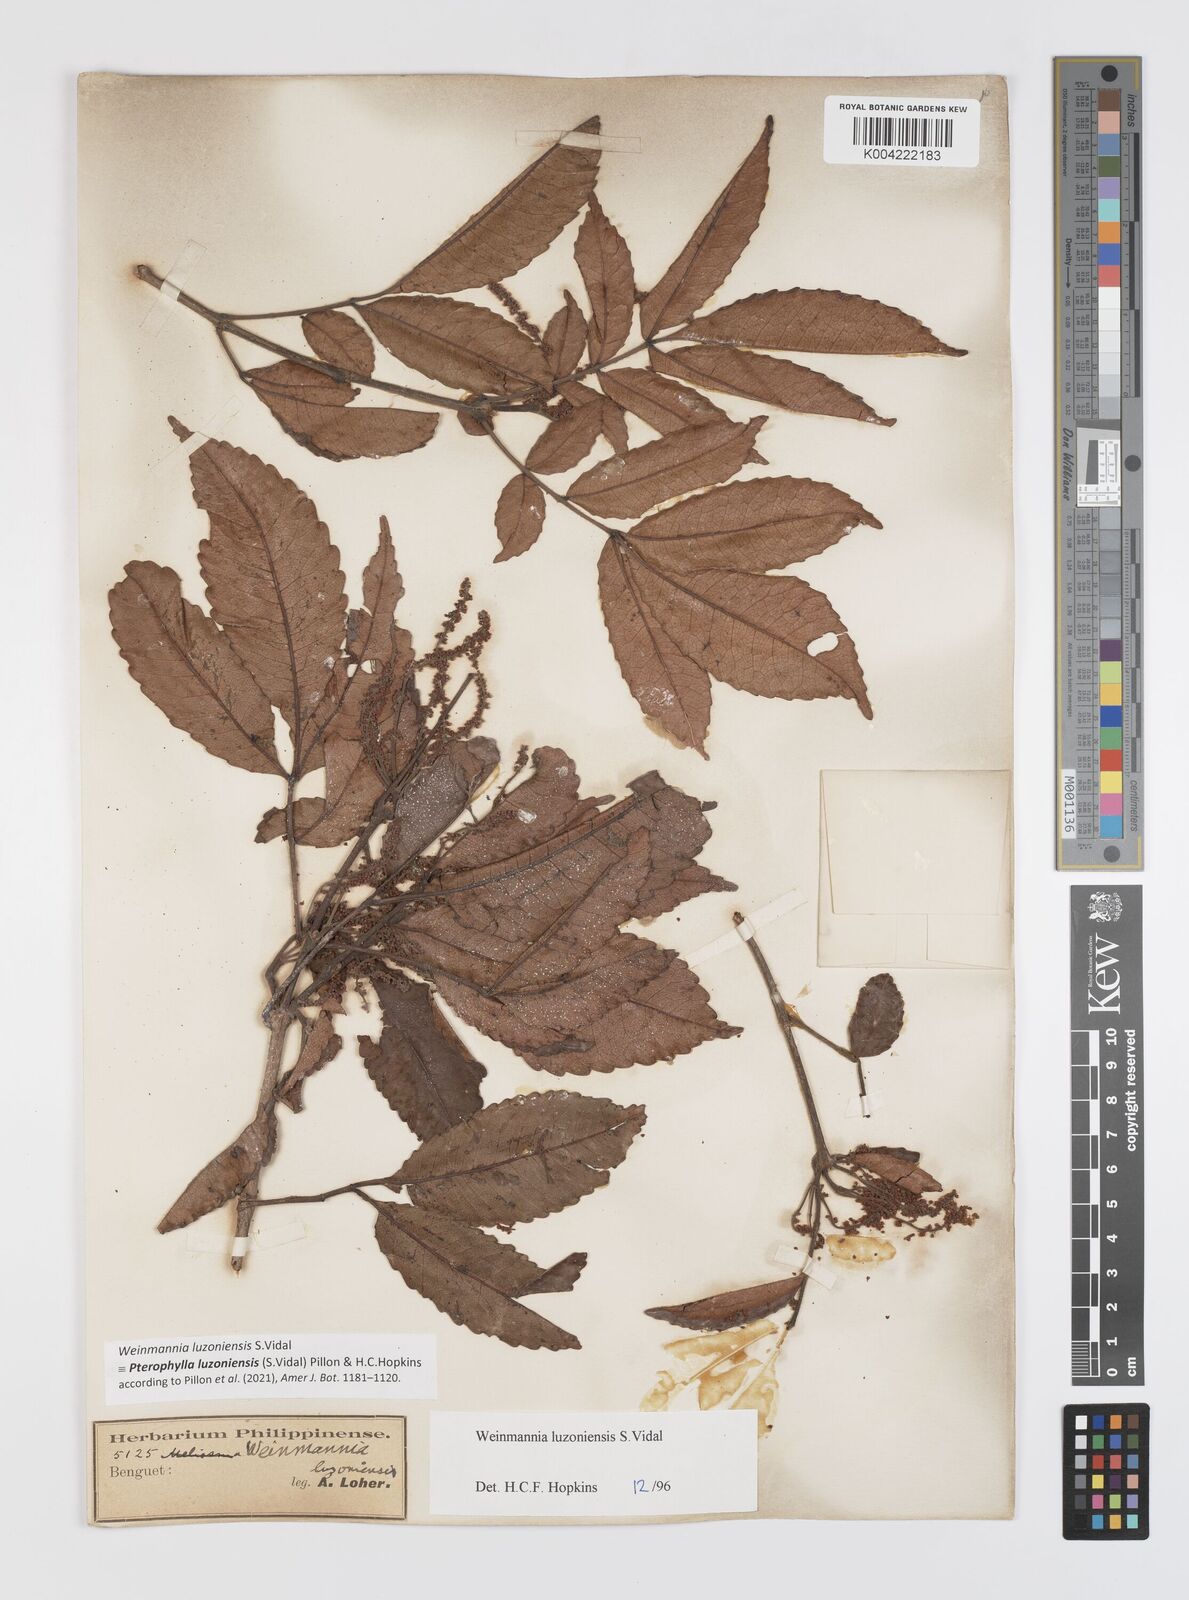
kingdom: Plantae
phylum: Tracheophyta
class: Magnoliopsida
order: Oxalidales
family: Cunoniaceae
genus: Pterophylla
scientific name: Pterophylla luzoniensis
